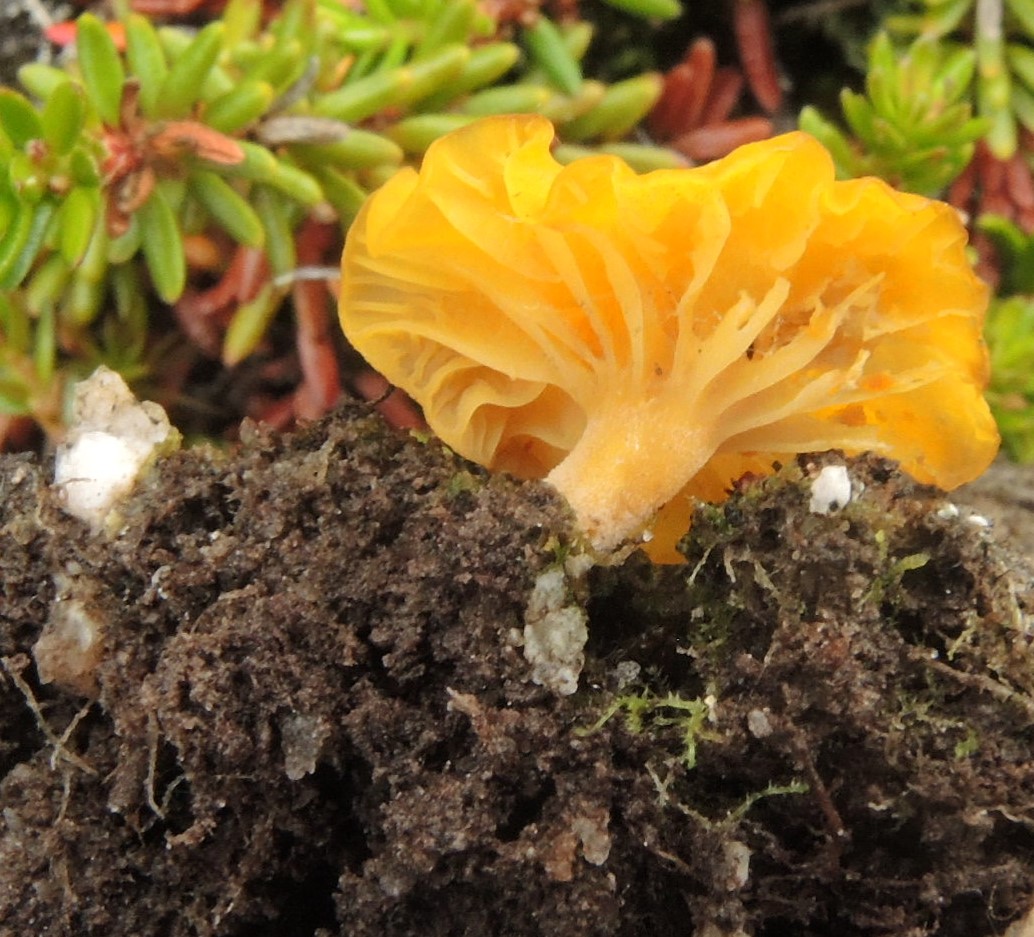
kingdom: Fungi
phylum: Basidiomycota
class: Agaricomycetes
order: Agaricales
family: Hygrophoraceae
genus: Lichenomphalia
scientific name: Lichenomphalia alpina
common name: fjeld-lavhat
